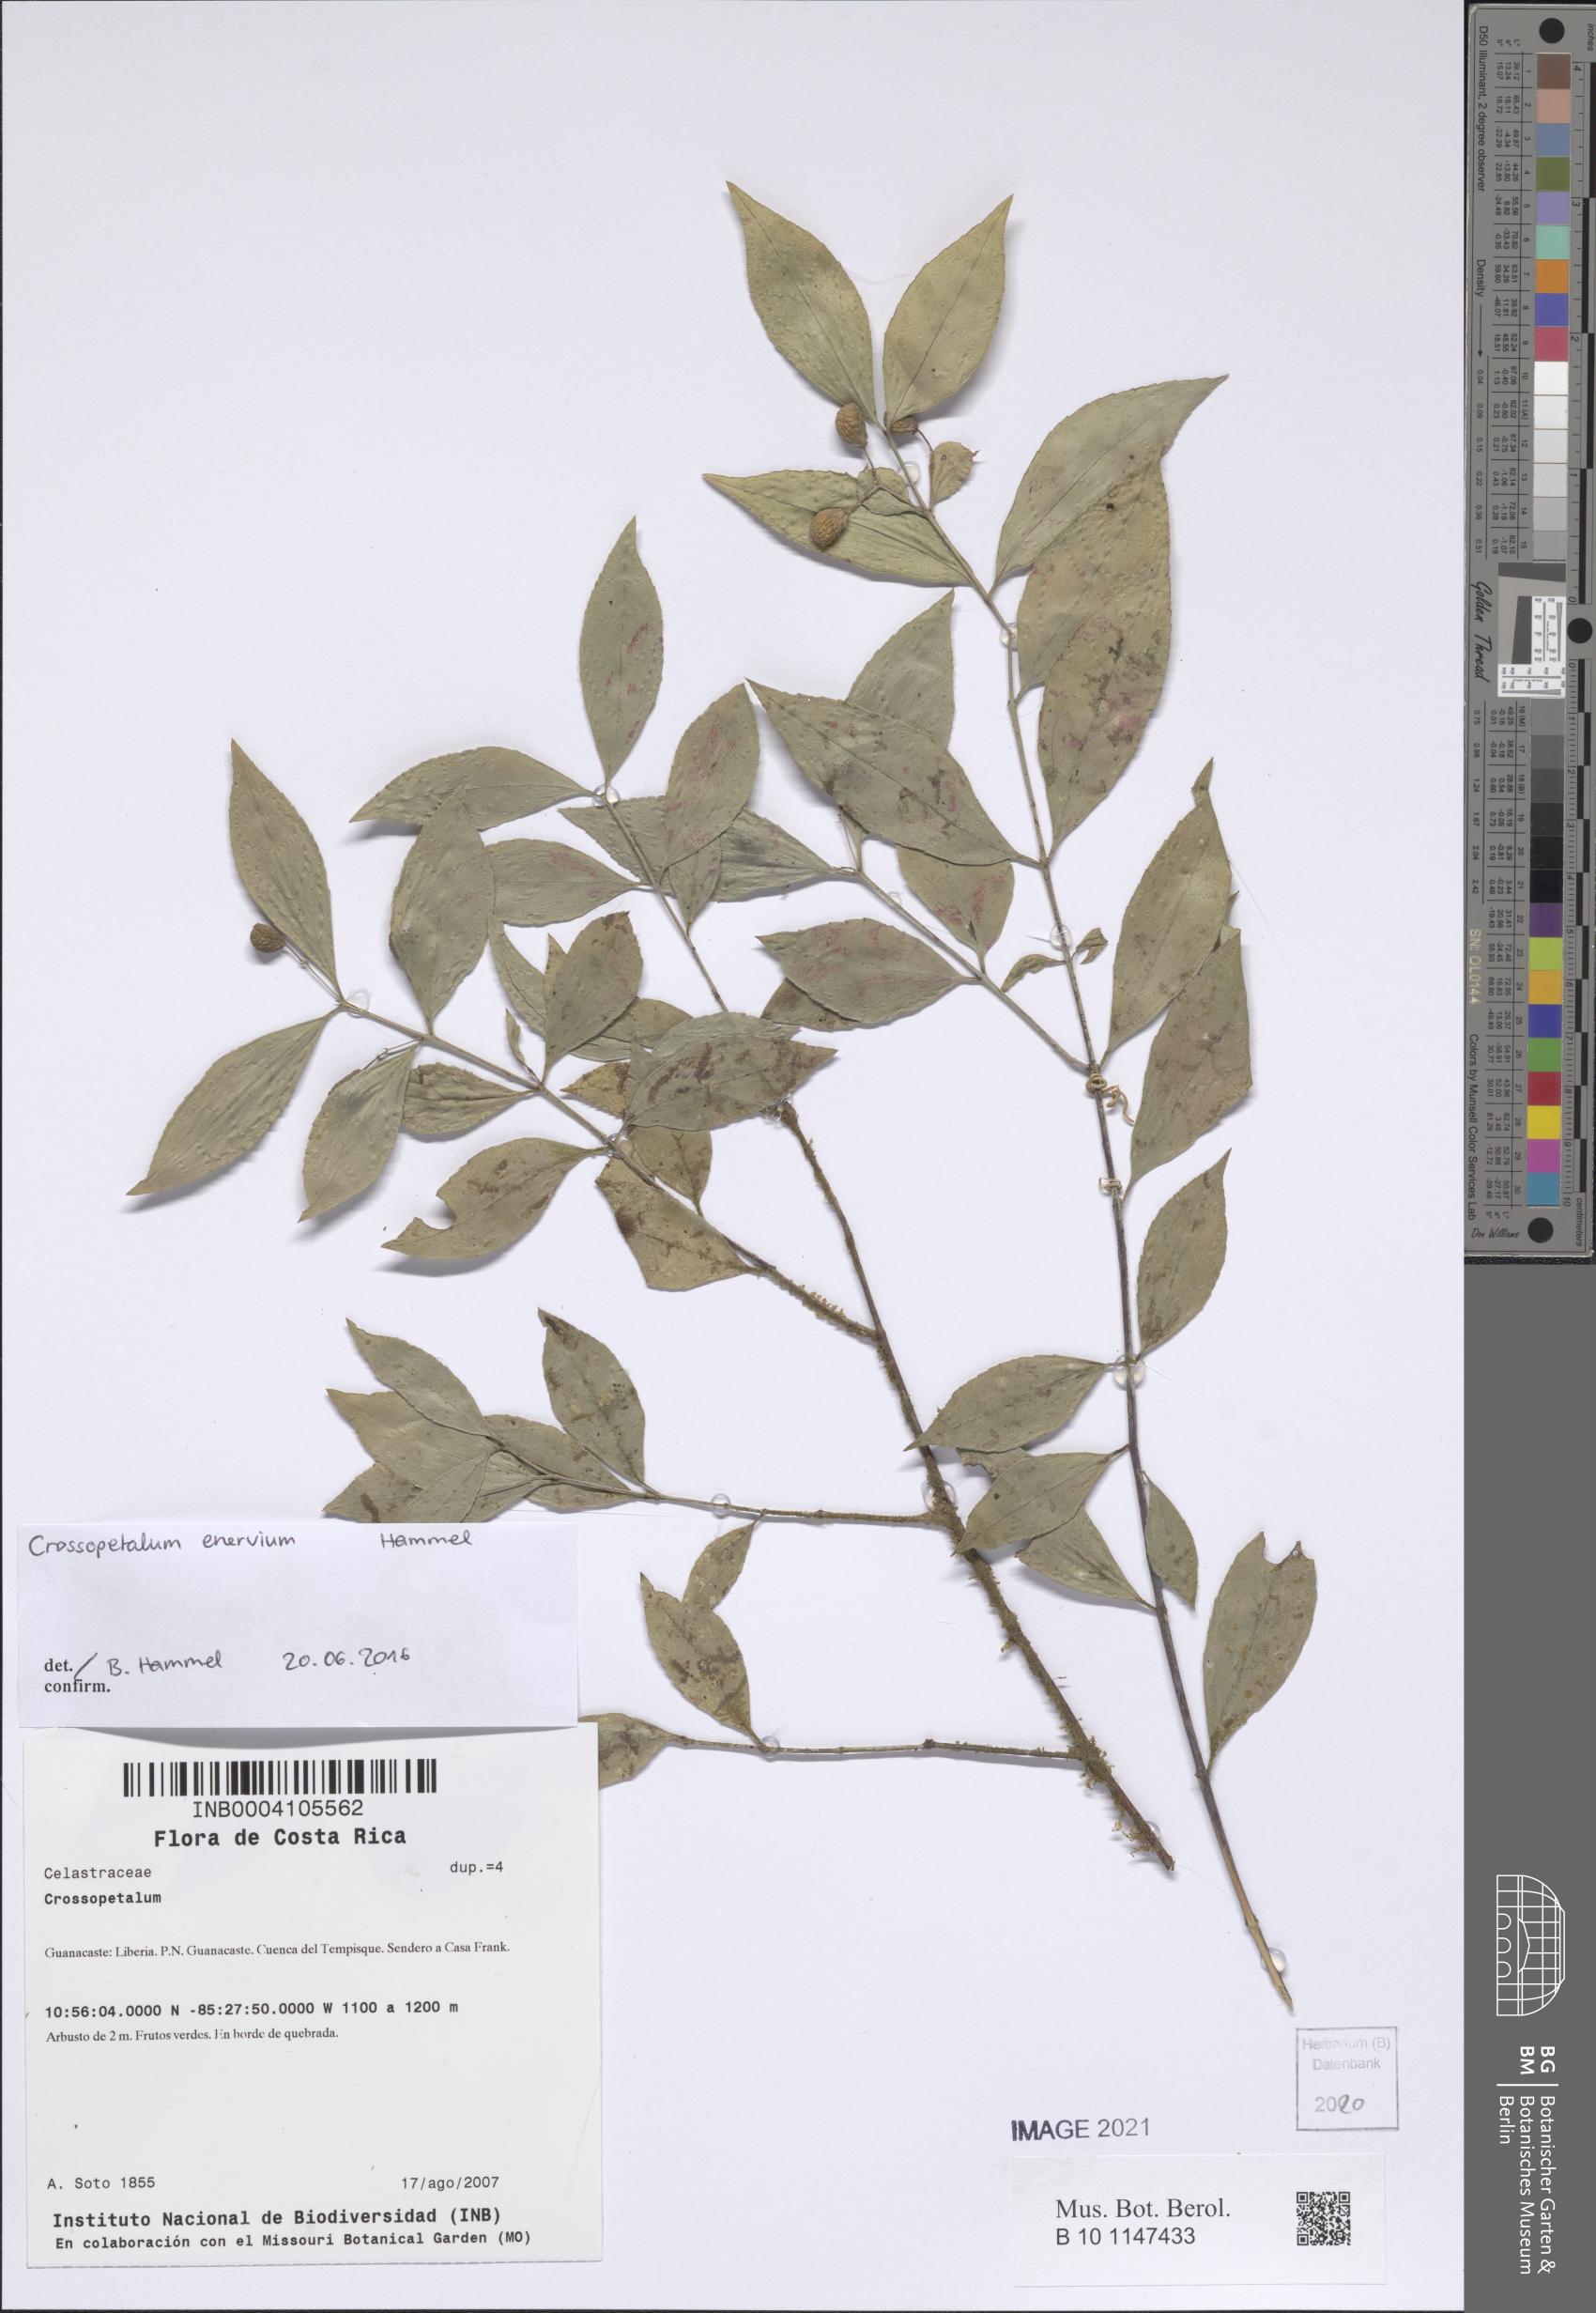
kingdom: Plantae
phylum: Tracheophyta
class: Magnoliopsida
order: Celastrales
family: Celastraceae
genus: Crossopetalum
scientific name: Crossopetalum
